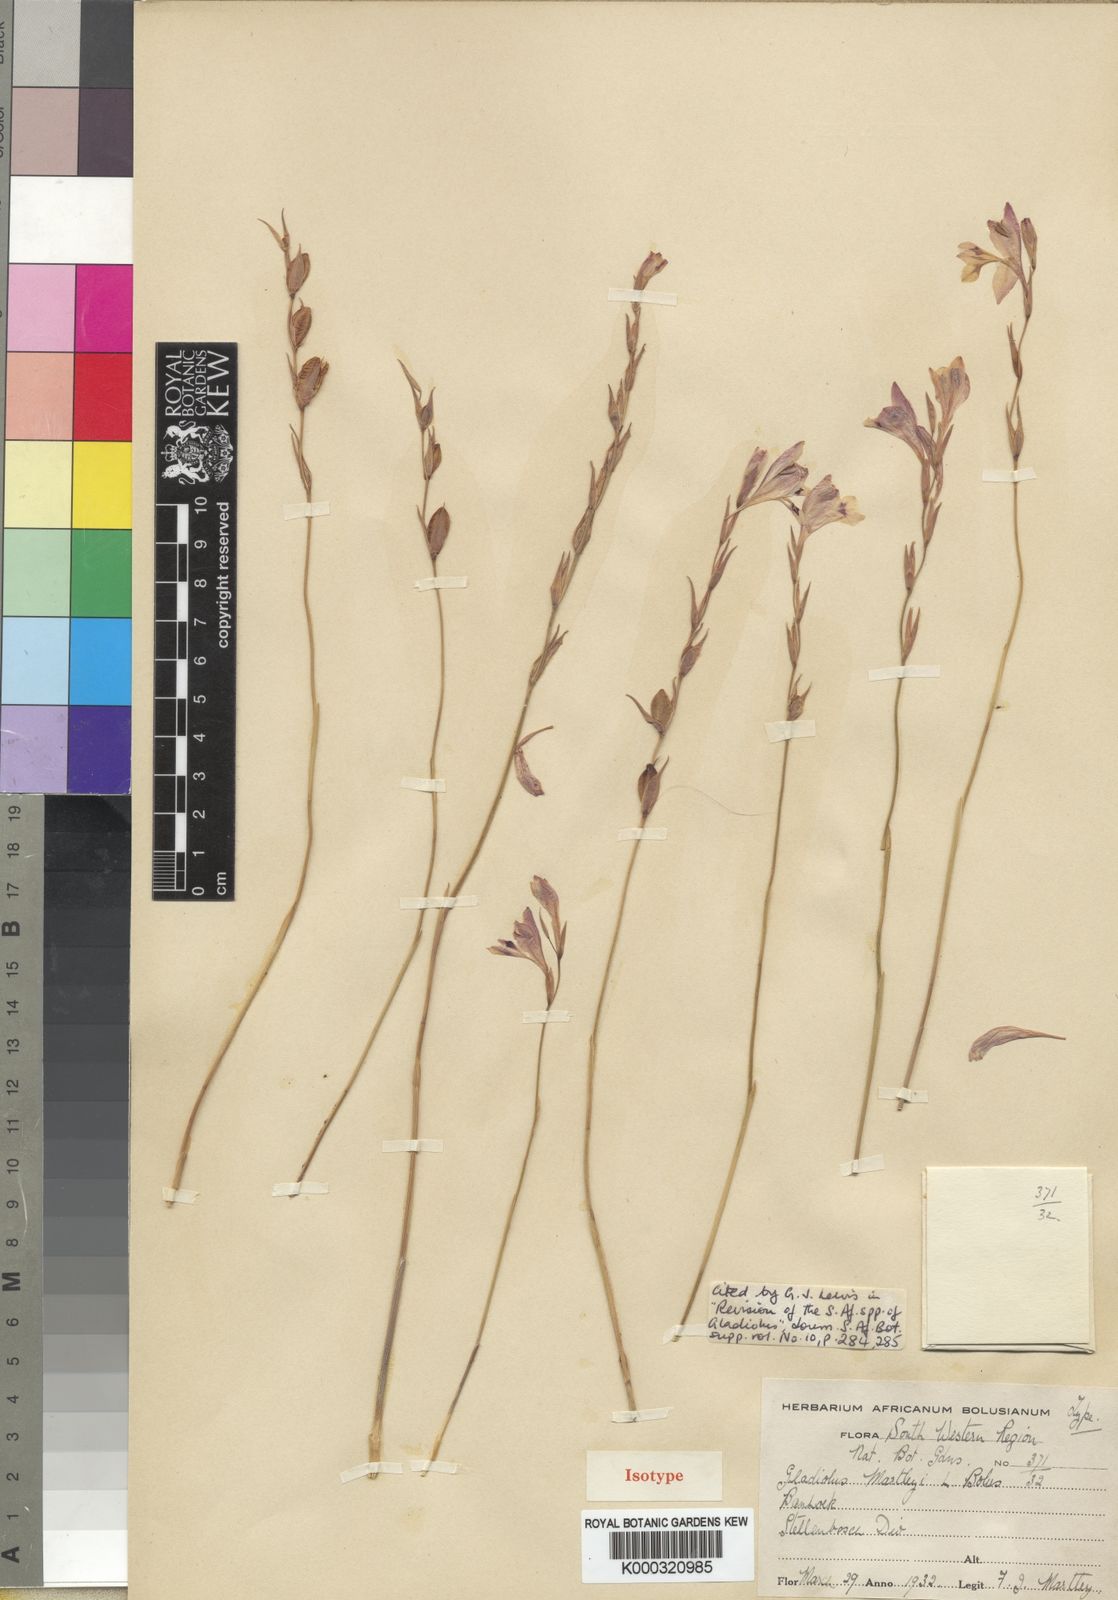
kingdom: Plantae
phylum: Tracheophyta
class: Liliopsida
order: Asparagales
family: Iridaceae
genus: Gladiolus
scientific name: Gladiolus martleyi
